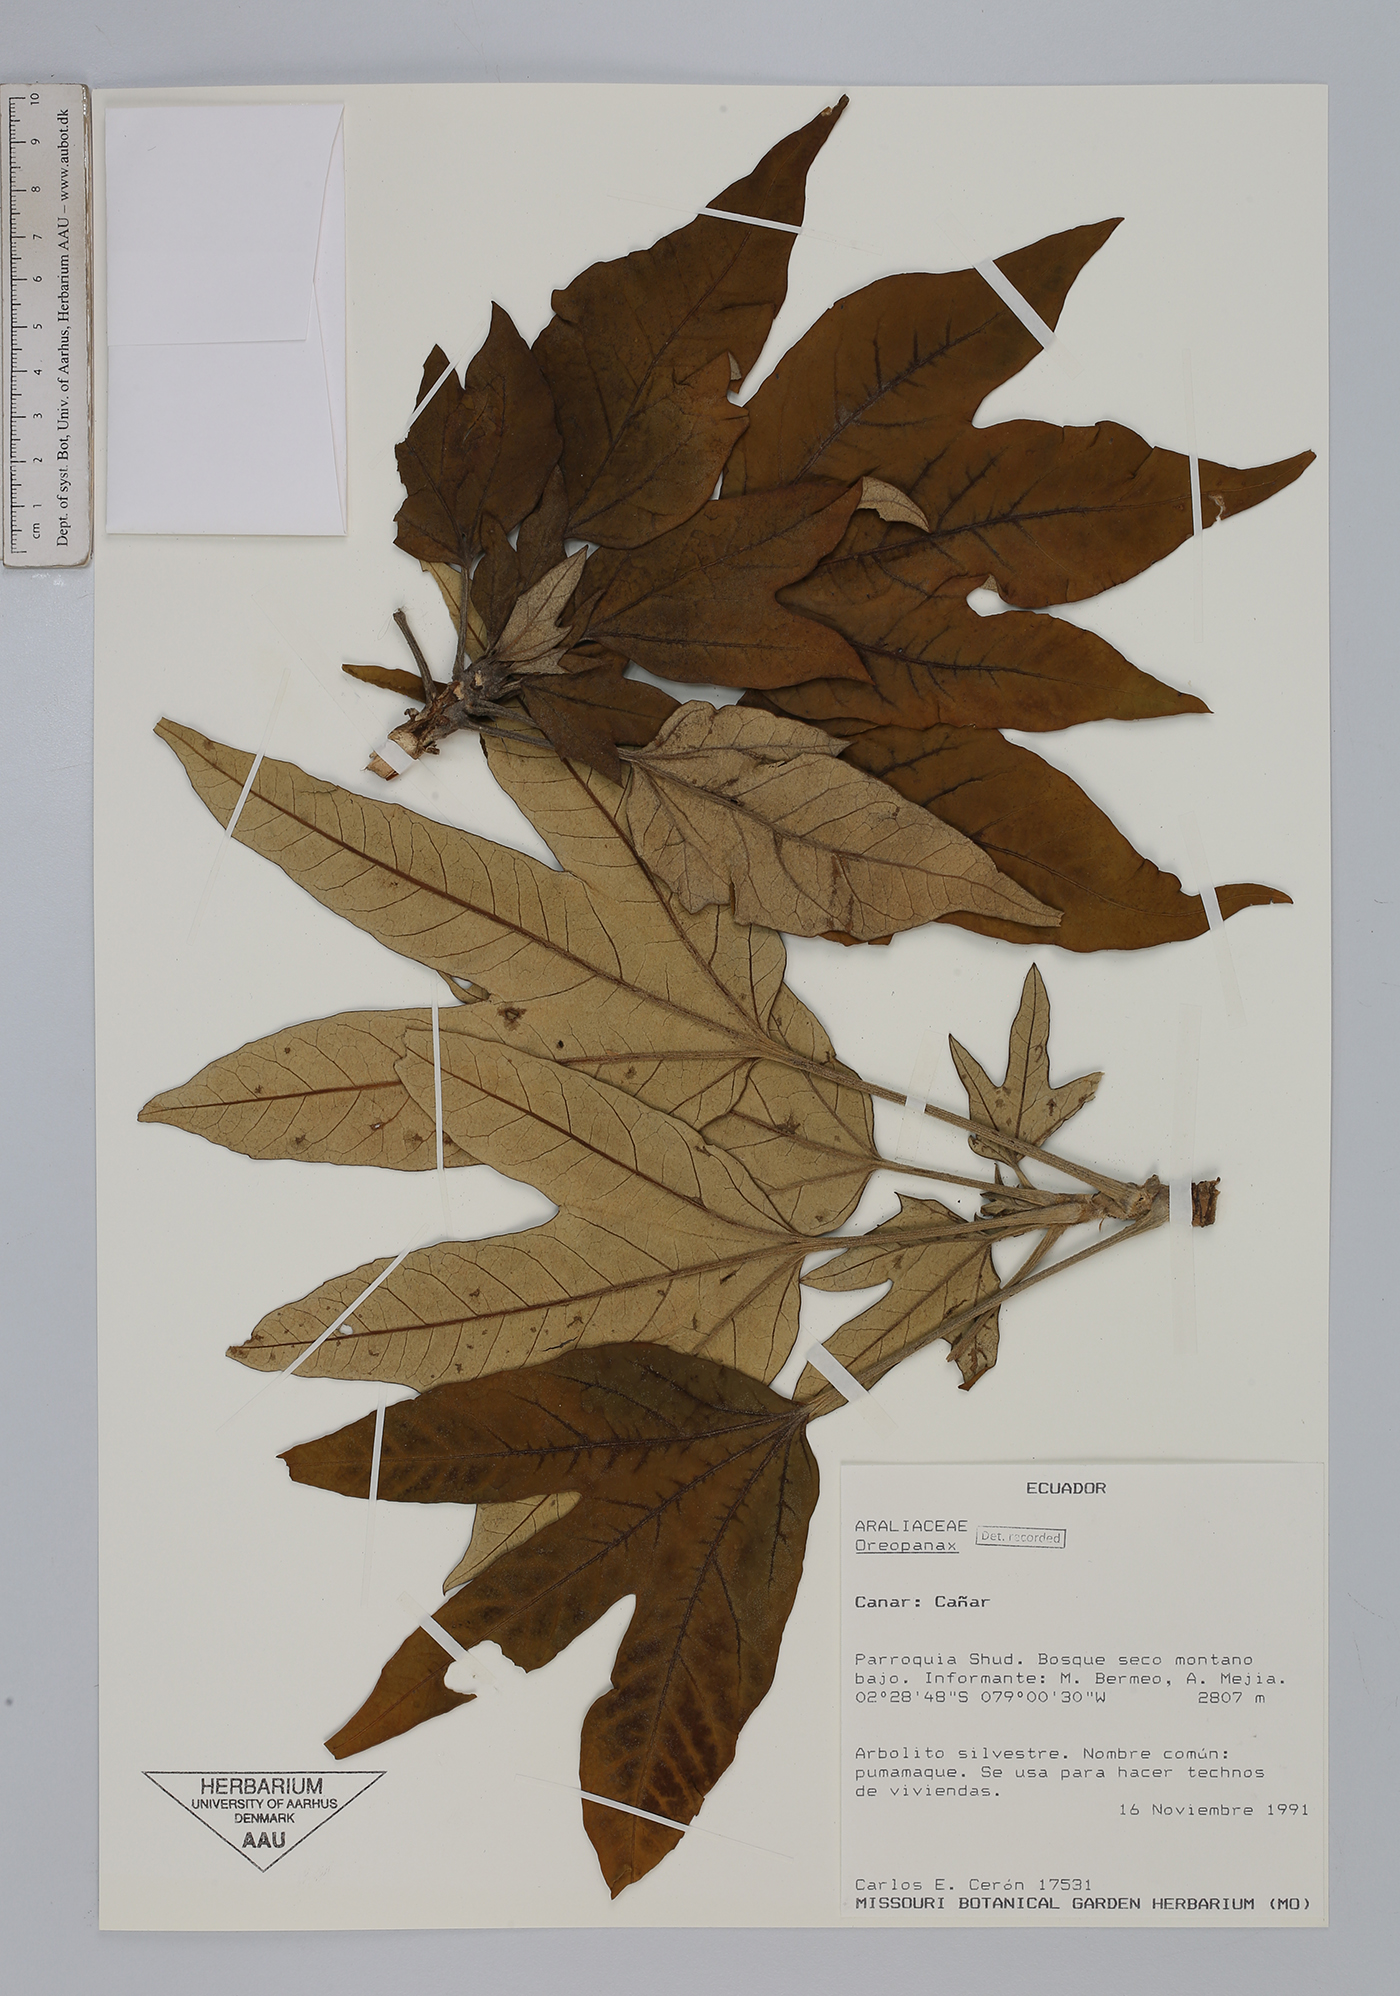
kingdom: Plantae
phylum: Tracheophyta
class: Magnoliopsida
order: Apiales
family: Araliaceae
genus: Oreopanax
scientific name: Oreopanax
